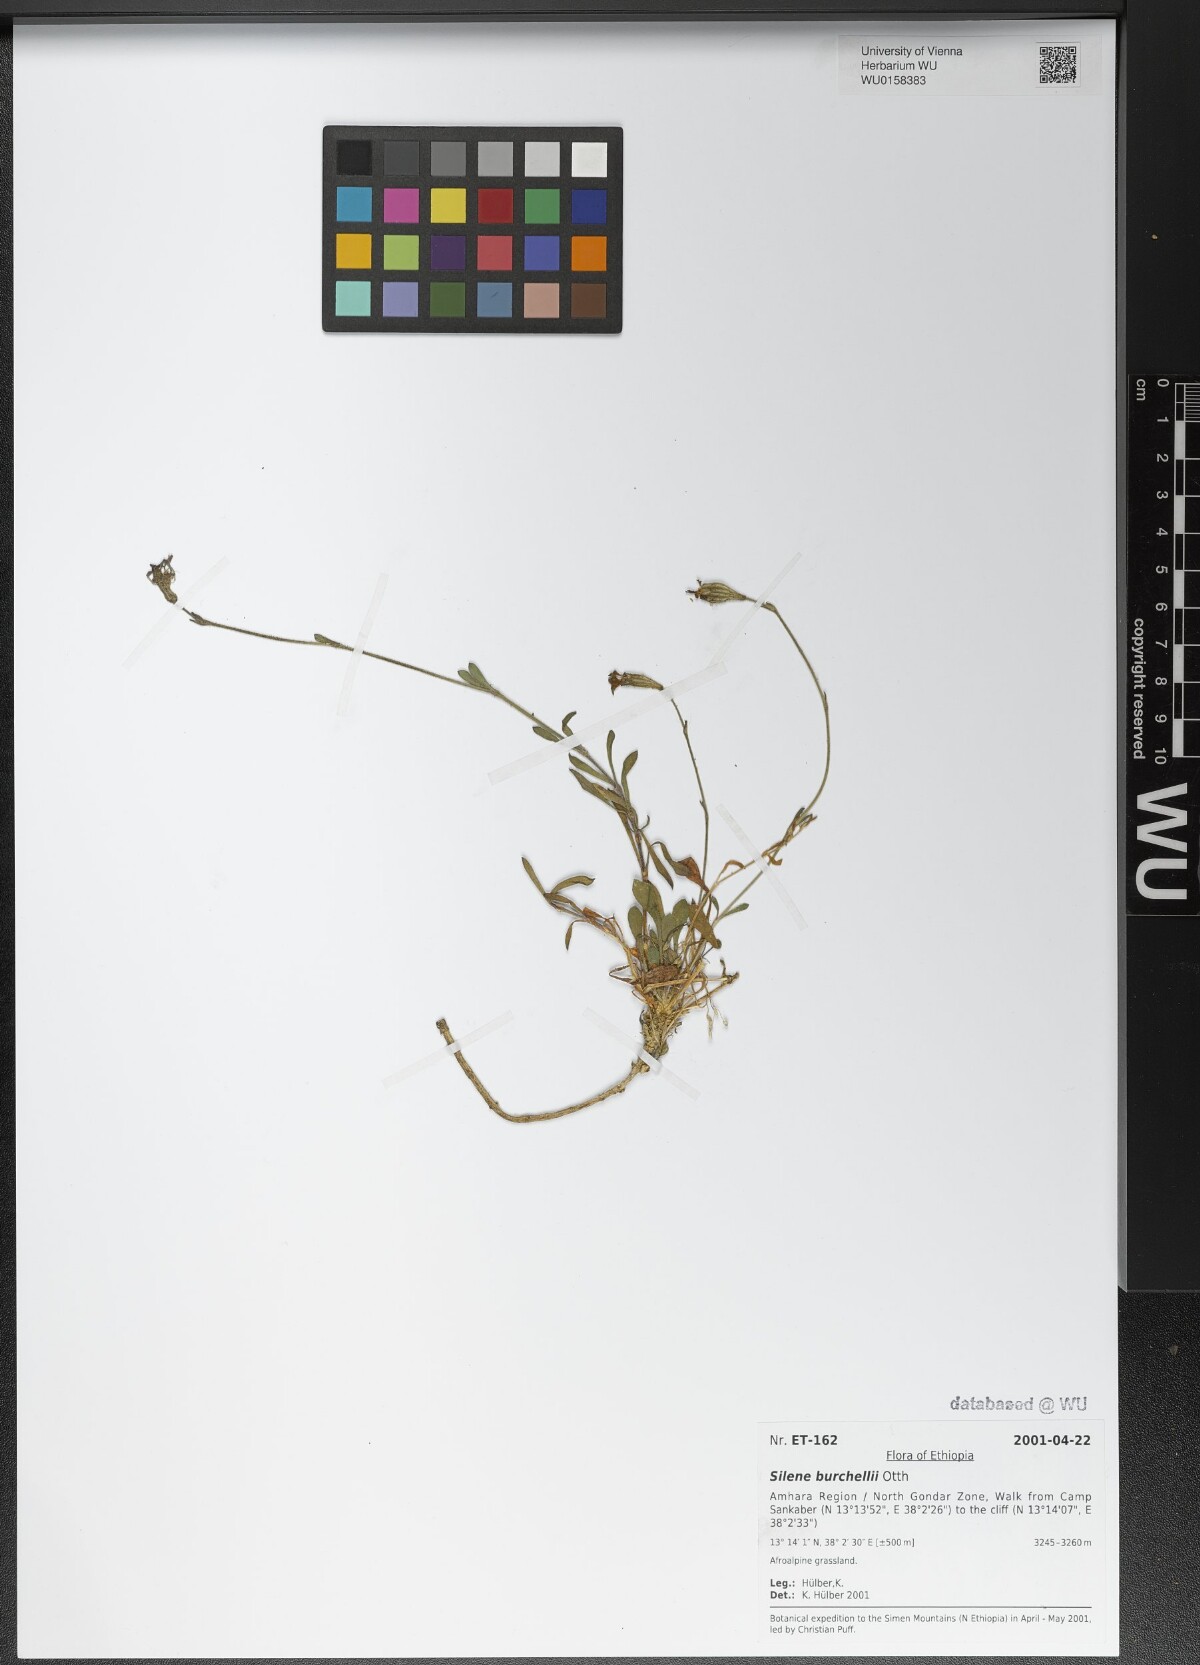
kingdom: Plantae
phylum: Tracheophyta
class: Magnoliopsida
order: Caryophyllales
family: Caryophyllaceae
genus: Silene
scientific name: Silene burchellii
